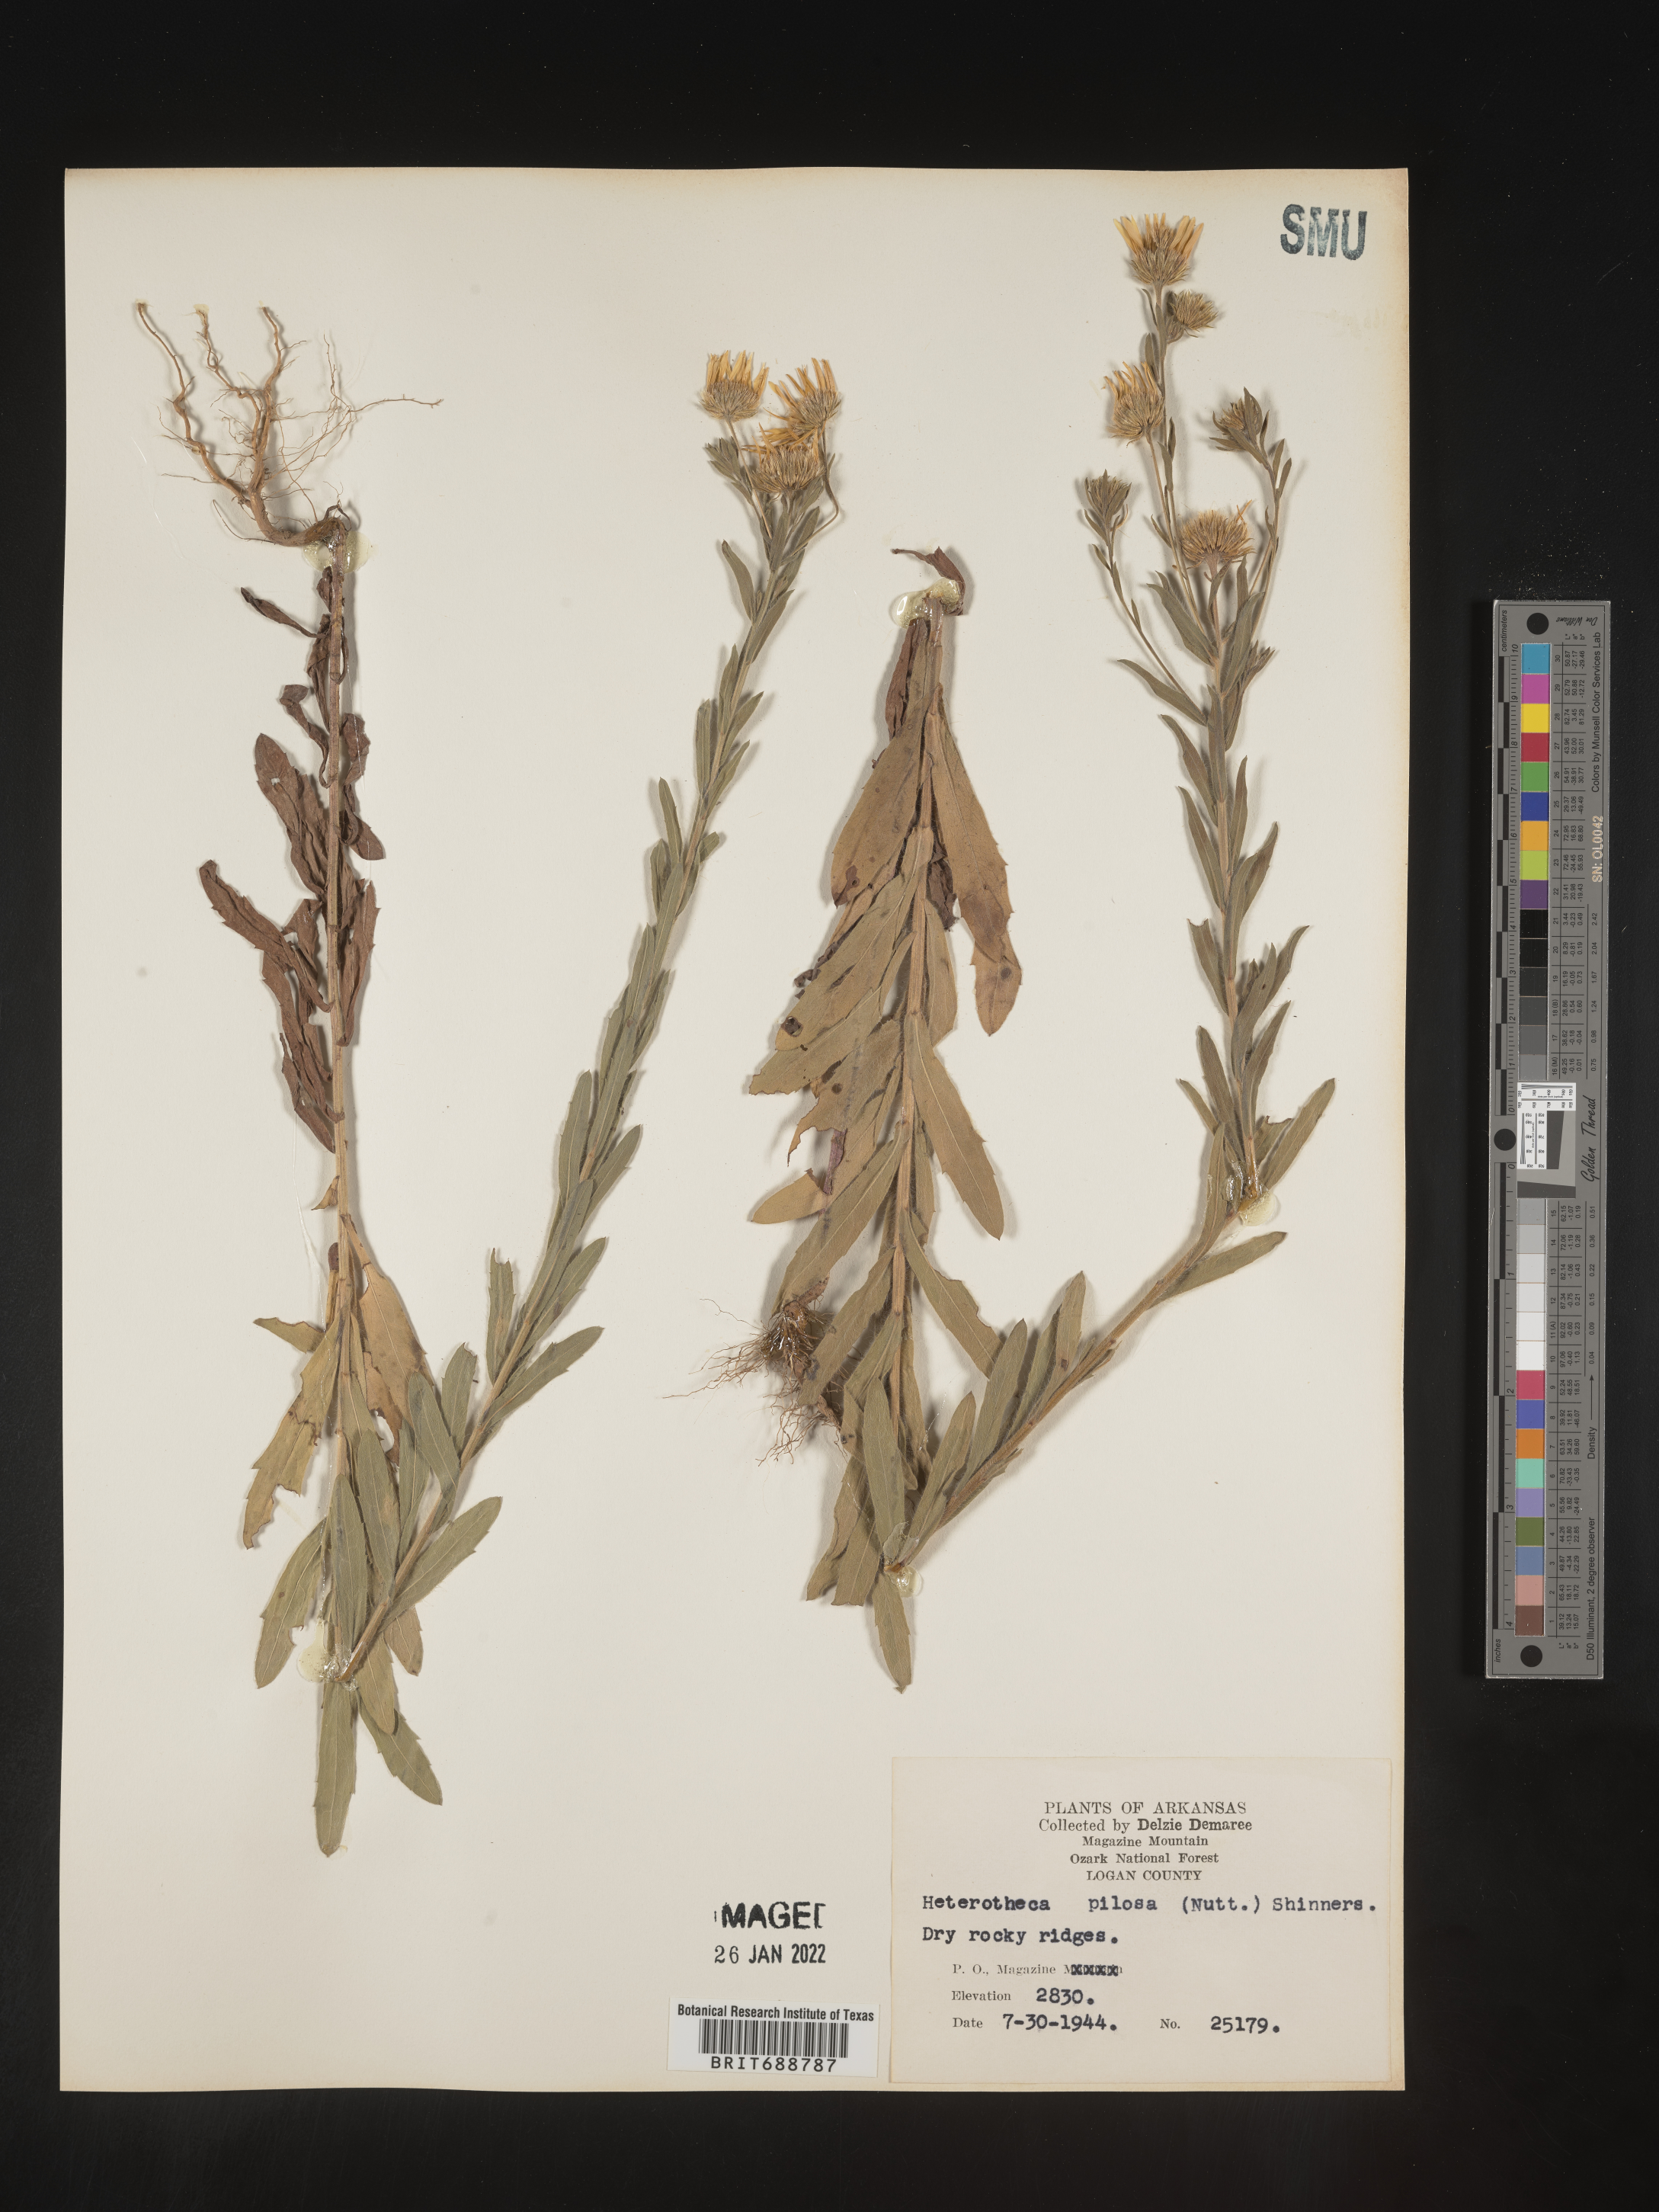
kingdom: Plantae
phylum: Tracheophyta
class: Magnoliopsida
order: Asterales
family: Asteraceae
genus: Bradburia
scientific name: Bradburia pilosa
